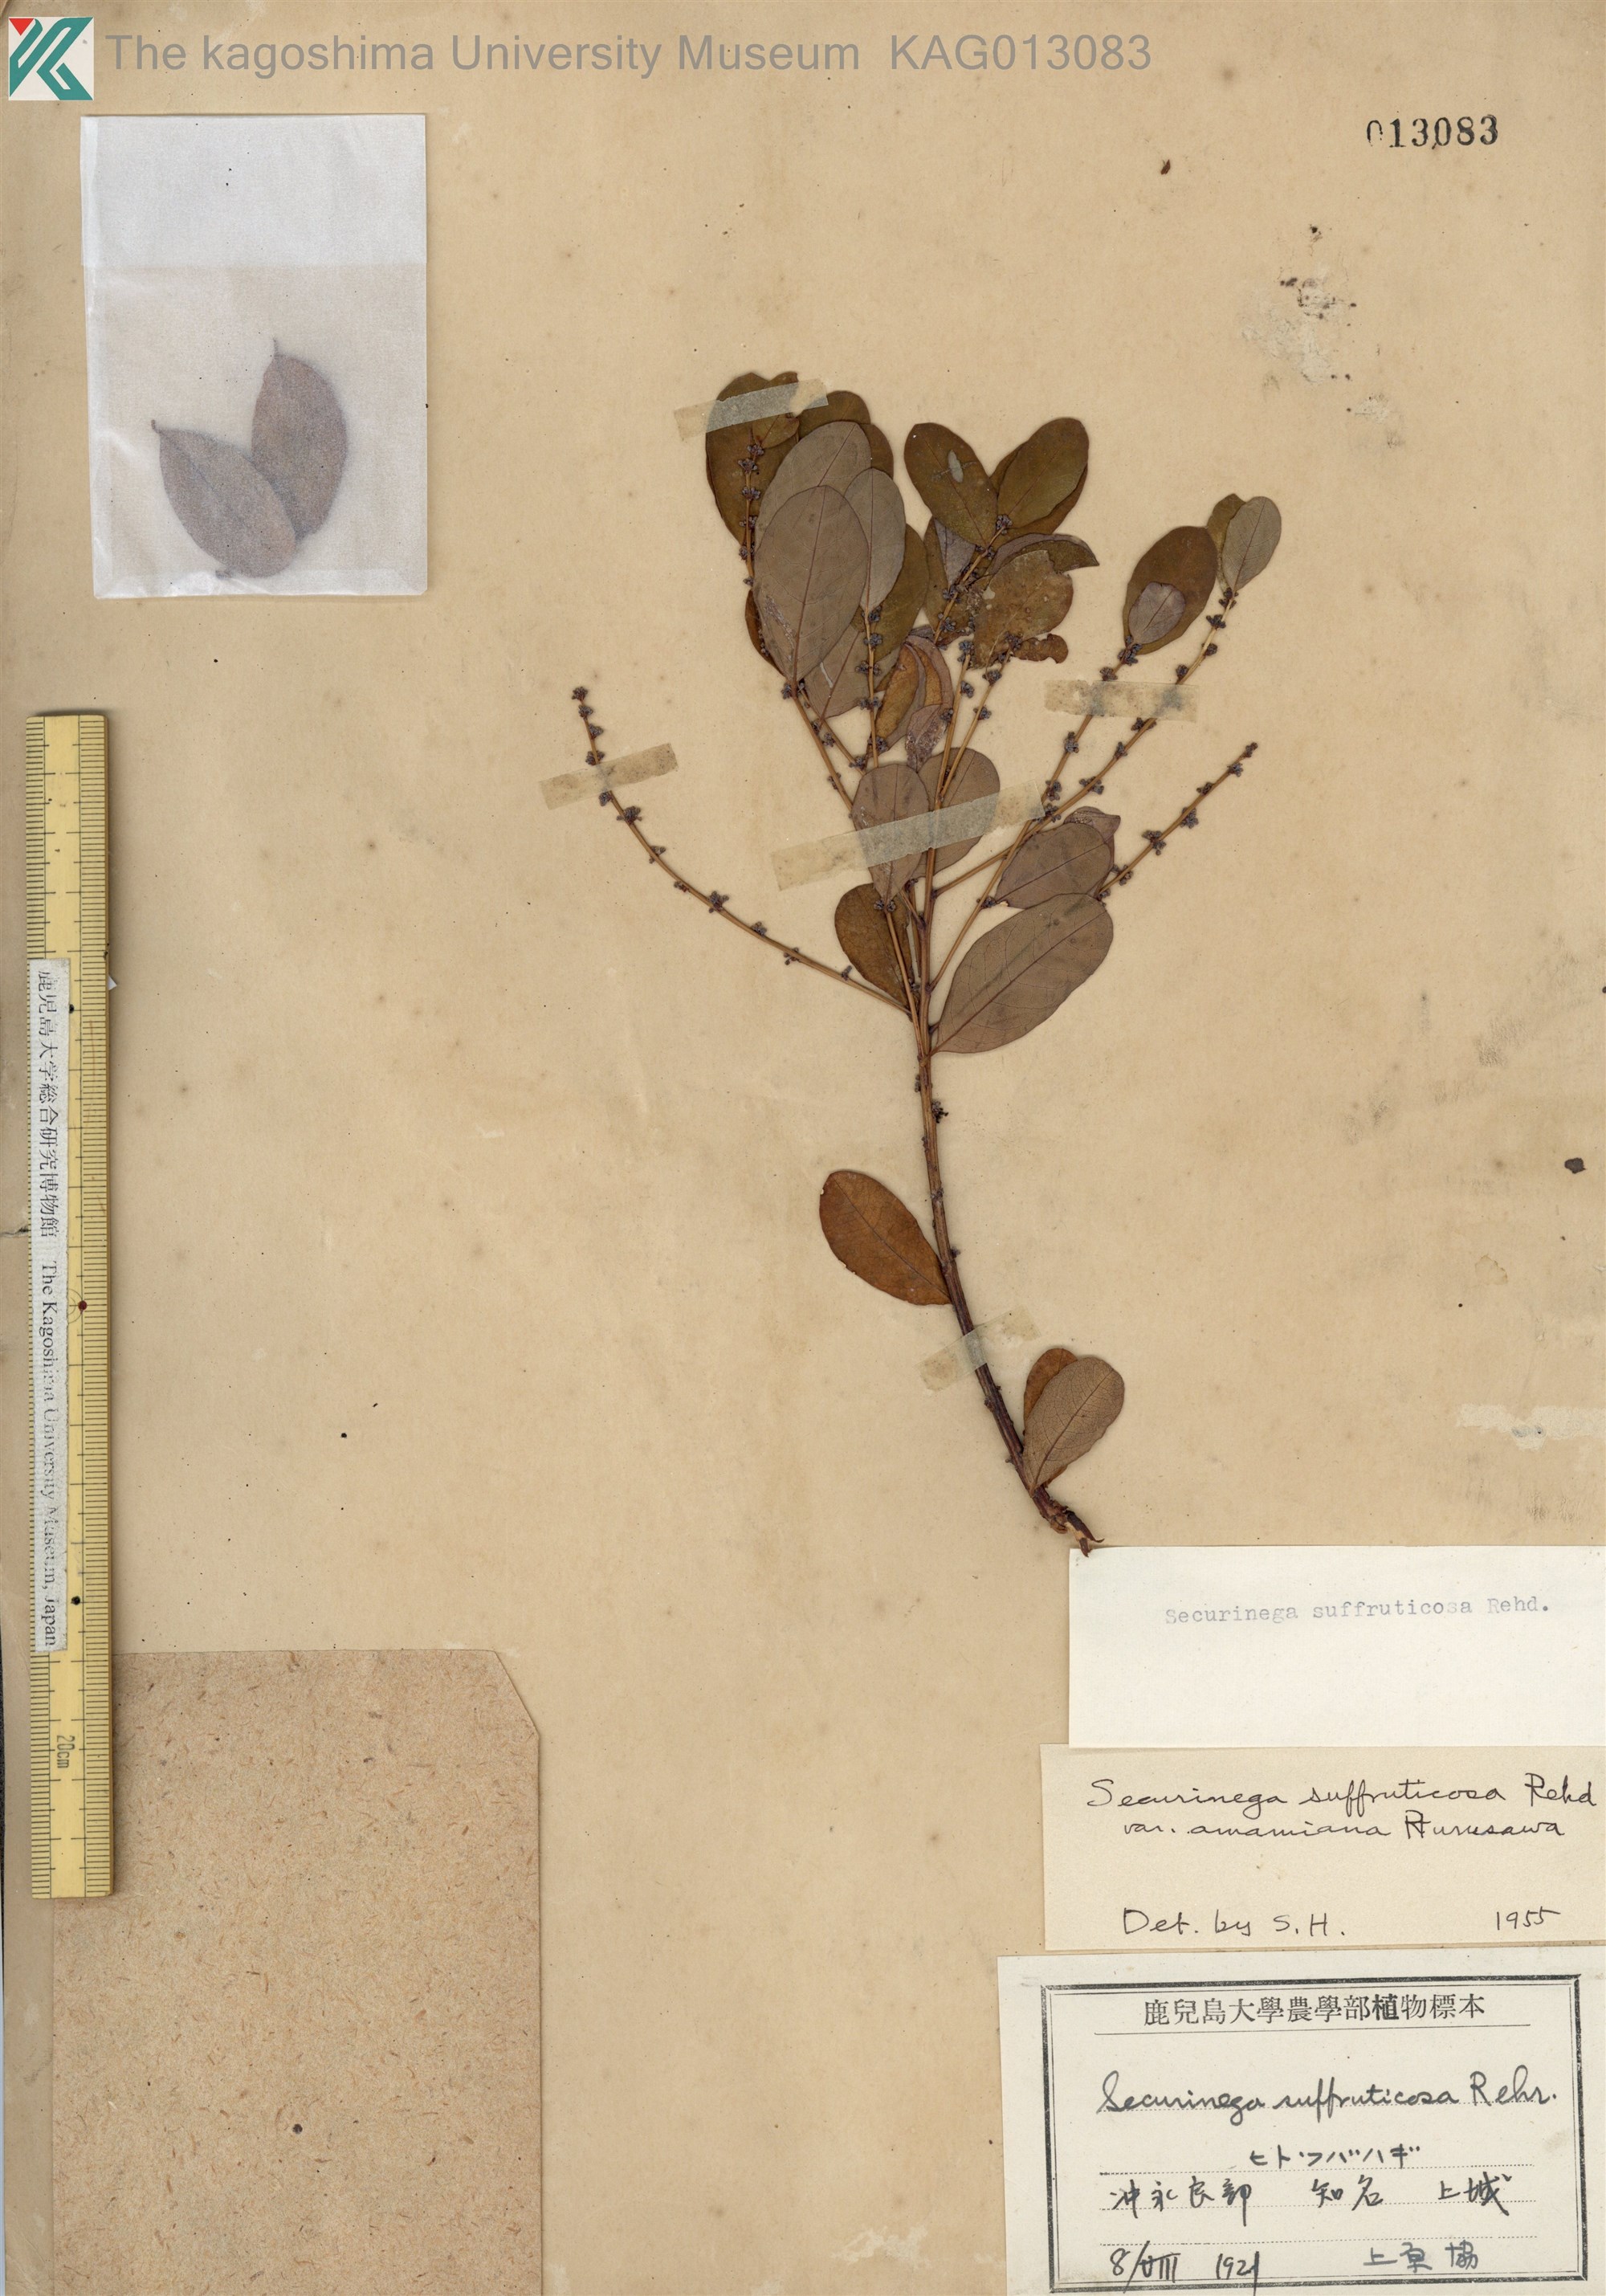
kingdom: Plantae
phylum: Tracheophyta
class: Magnoliopsida
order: Malpighiales
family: Phyllanthaceae
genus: Flueggea
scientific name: Flueggea suffruticosa
